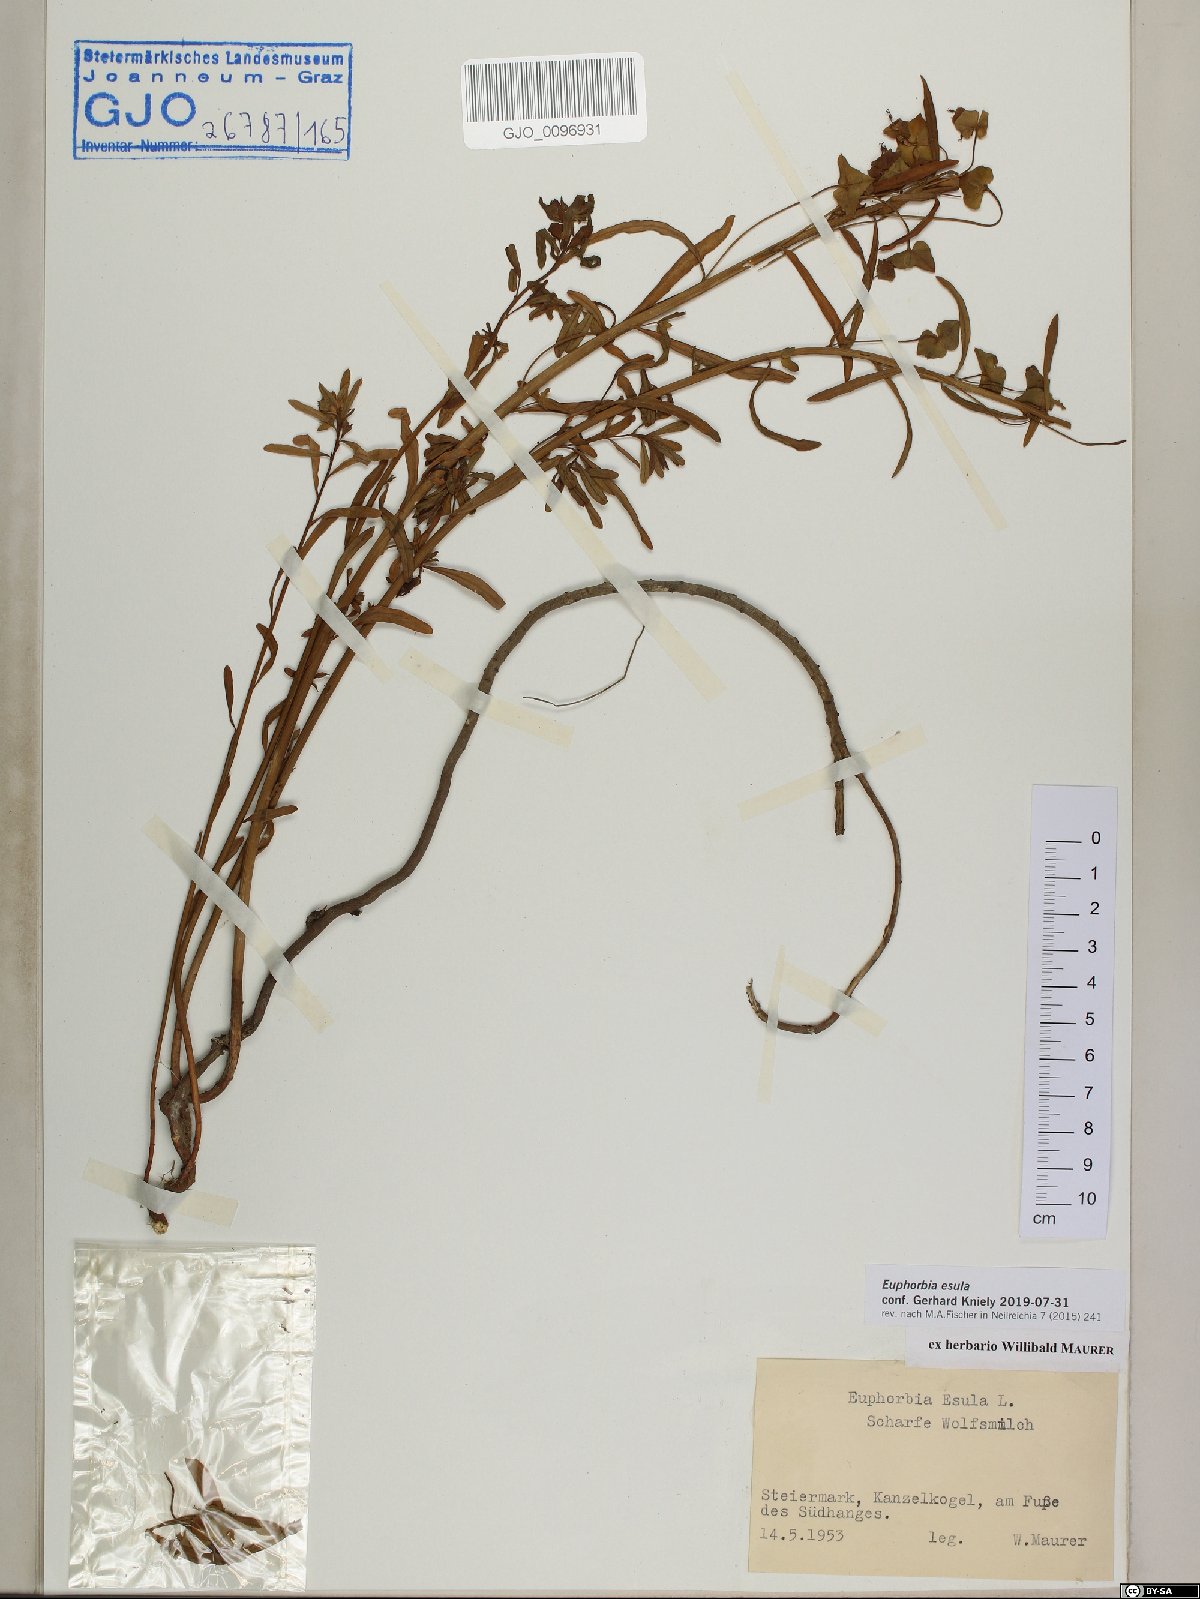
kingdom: Plantae
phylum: Tracheophyta
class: Magnoliopsida
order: Malpighiales
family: Euphorbiaceae
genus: Euphorbia
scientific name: Euphorbia esula
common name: Leafy spurge
